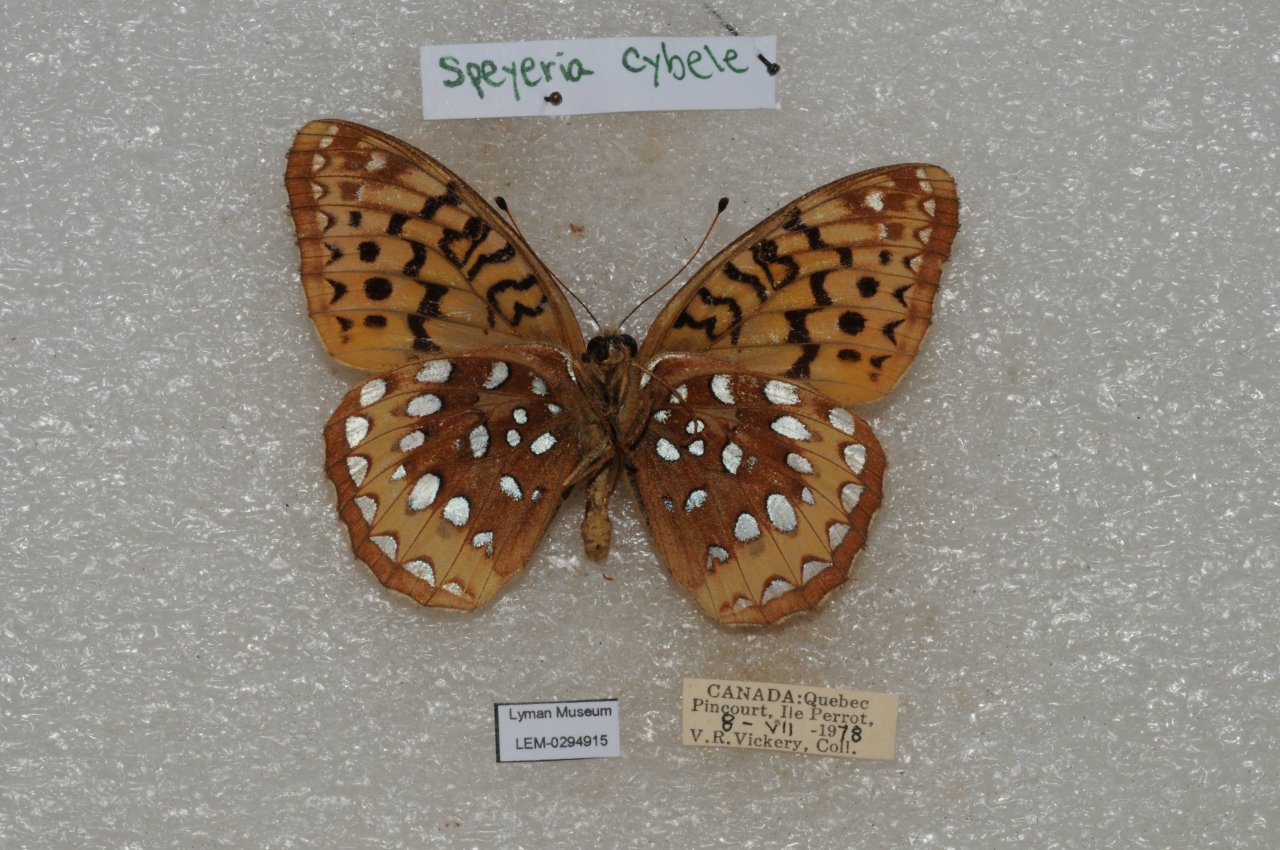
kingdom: Animalia
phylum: Arthropoda
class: Insecta
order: Lepidoptera
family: Nymphalidae
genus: Speyeria
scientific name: Speyeria cybele
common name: Great Spangled Fritillary
